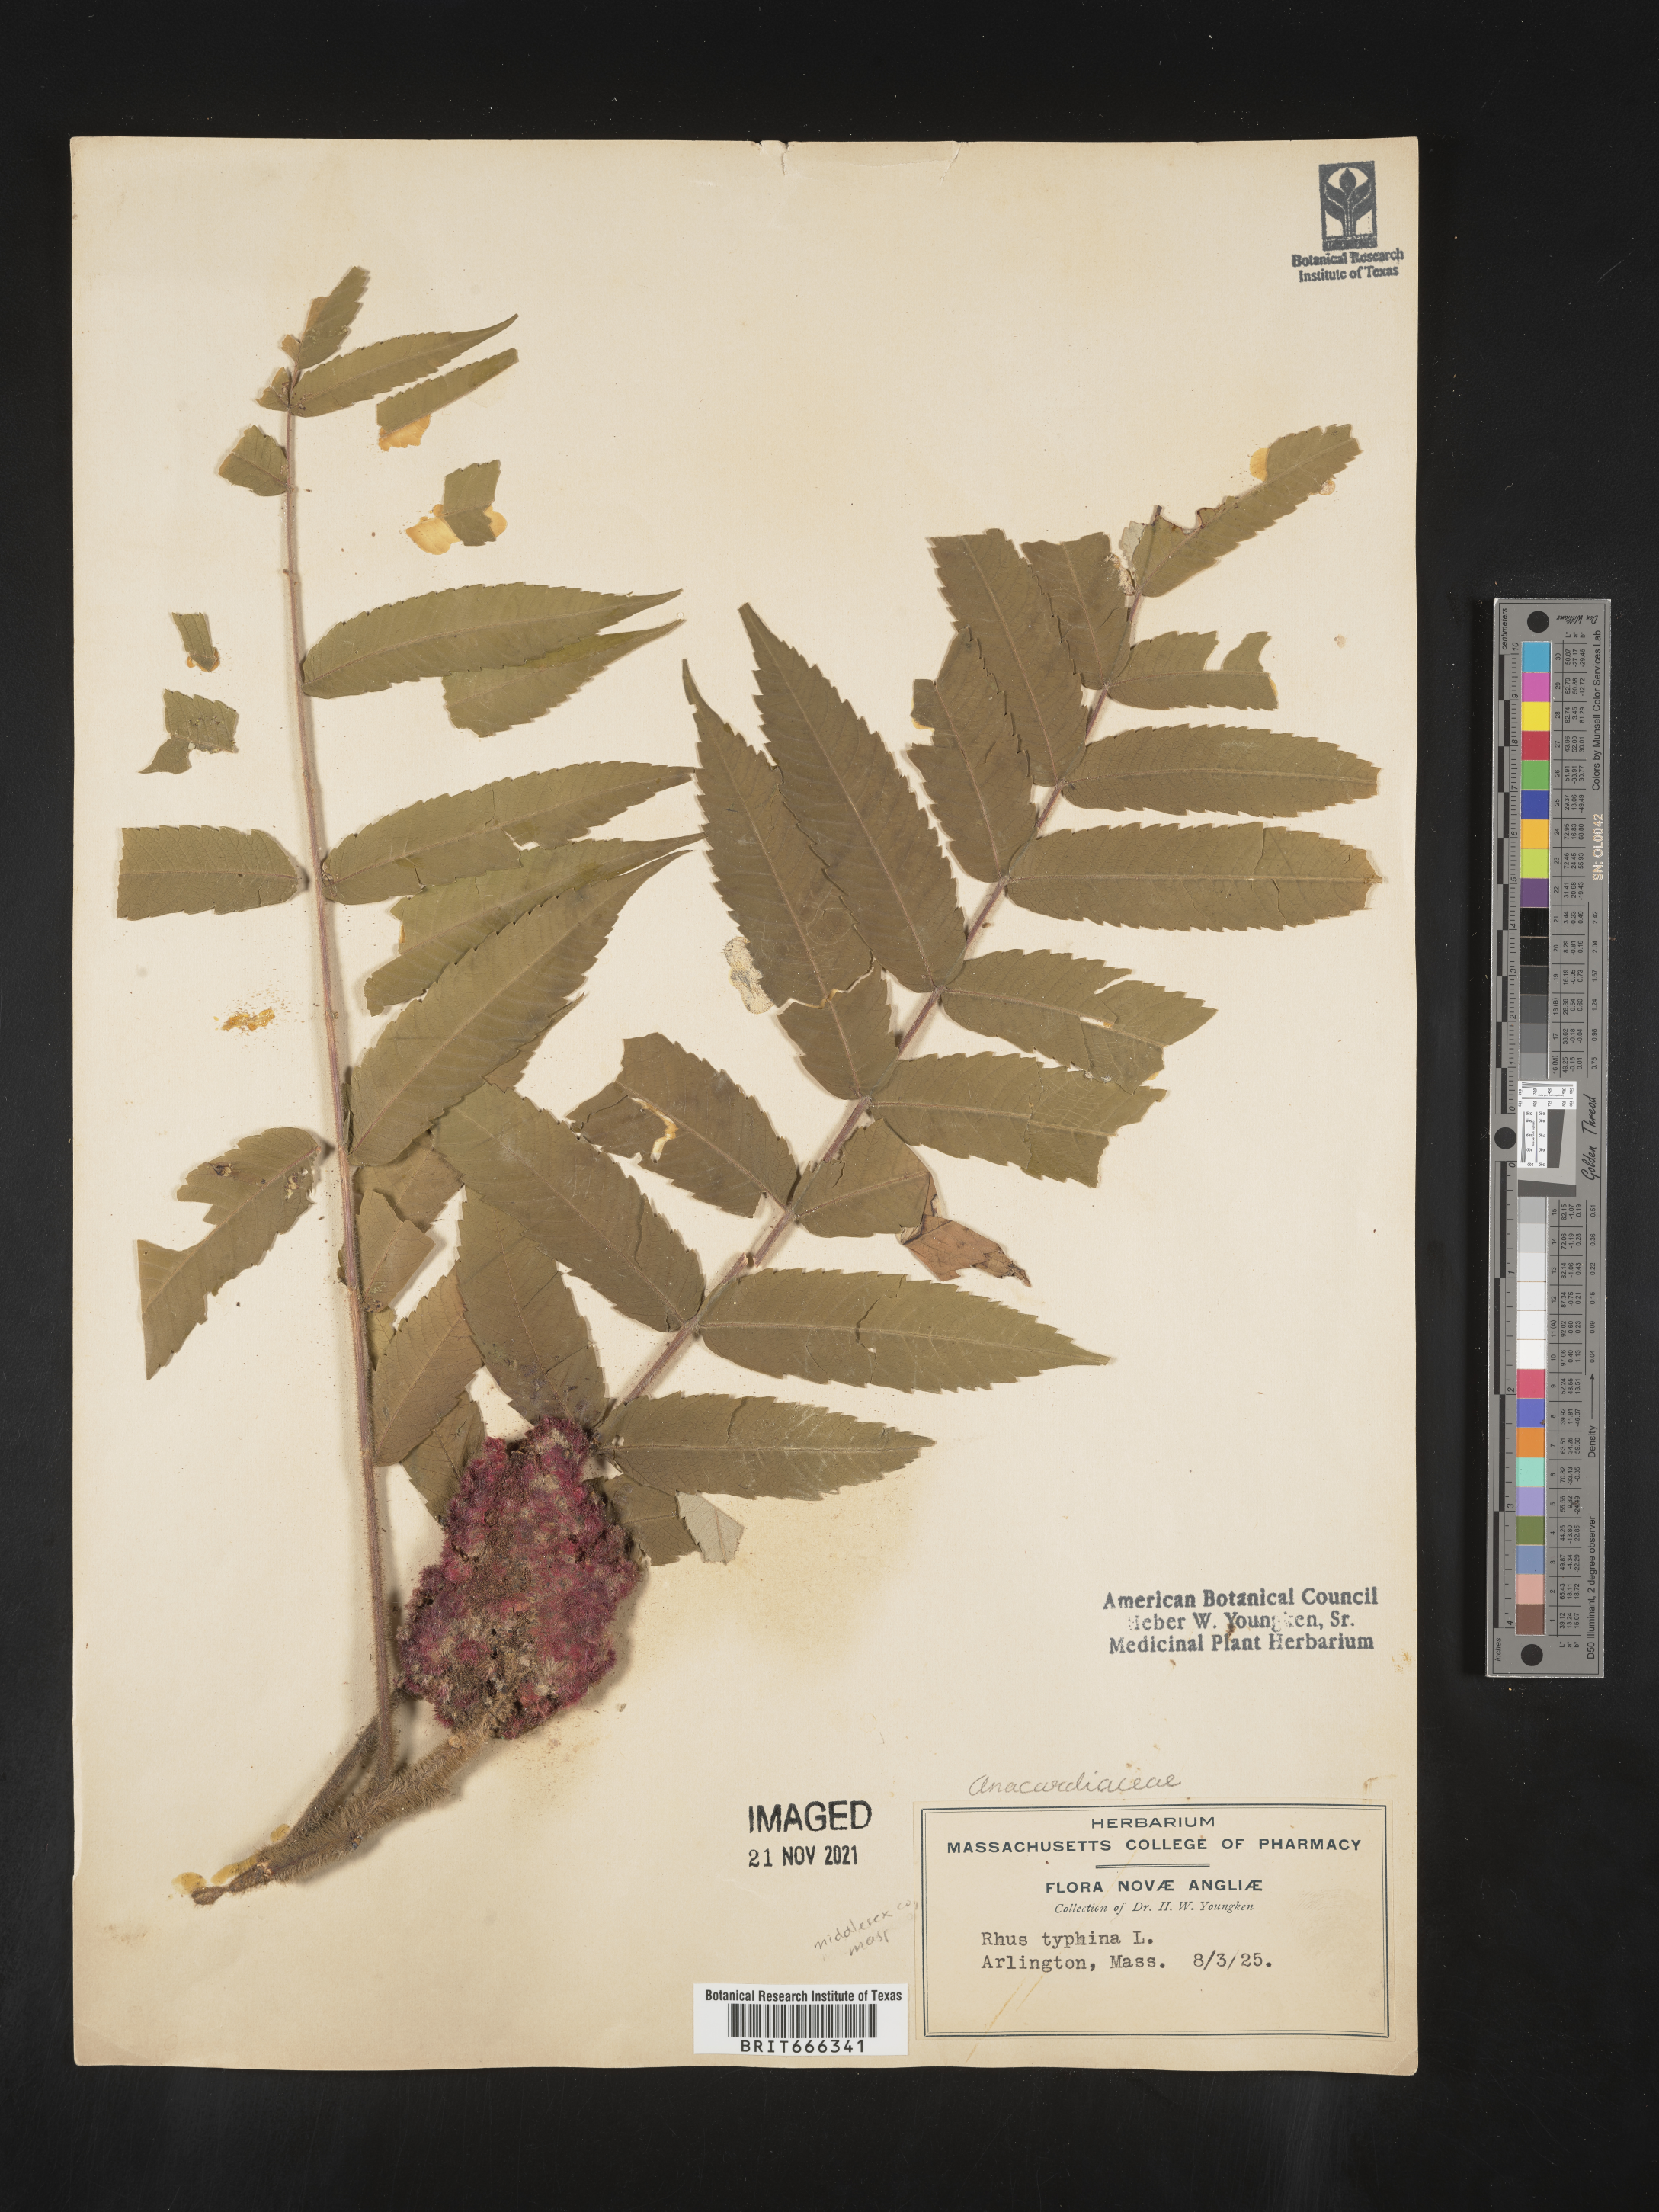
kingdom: Plantae
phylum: Tracheophyta
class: Magnoliopsida
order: Sapindales
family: Anacardiaceae
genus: Rhus
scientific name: Rhus typhina
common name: Staghorn sumac
